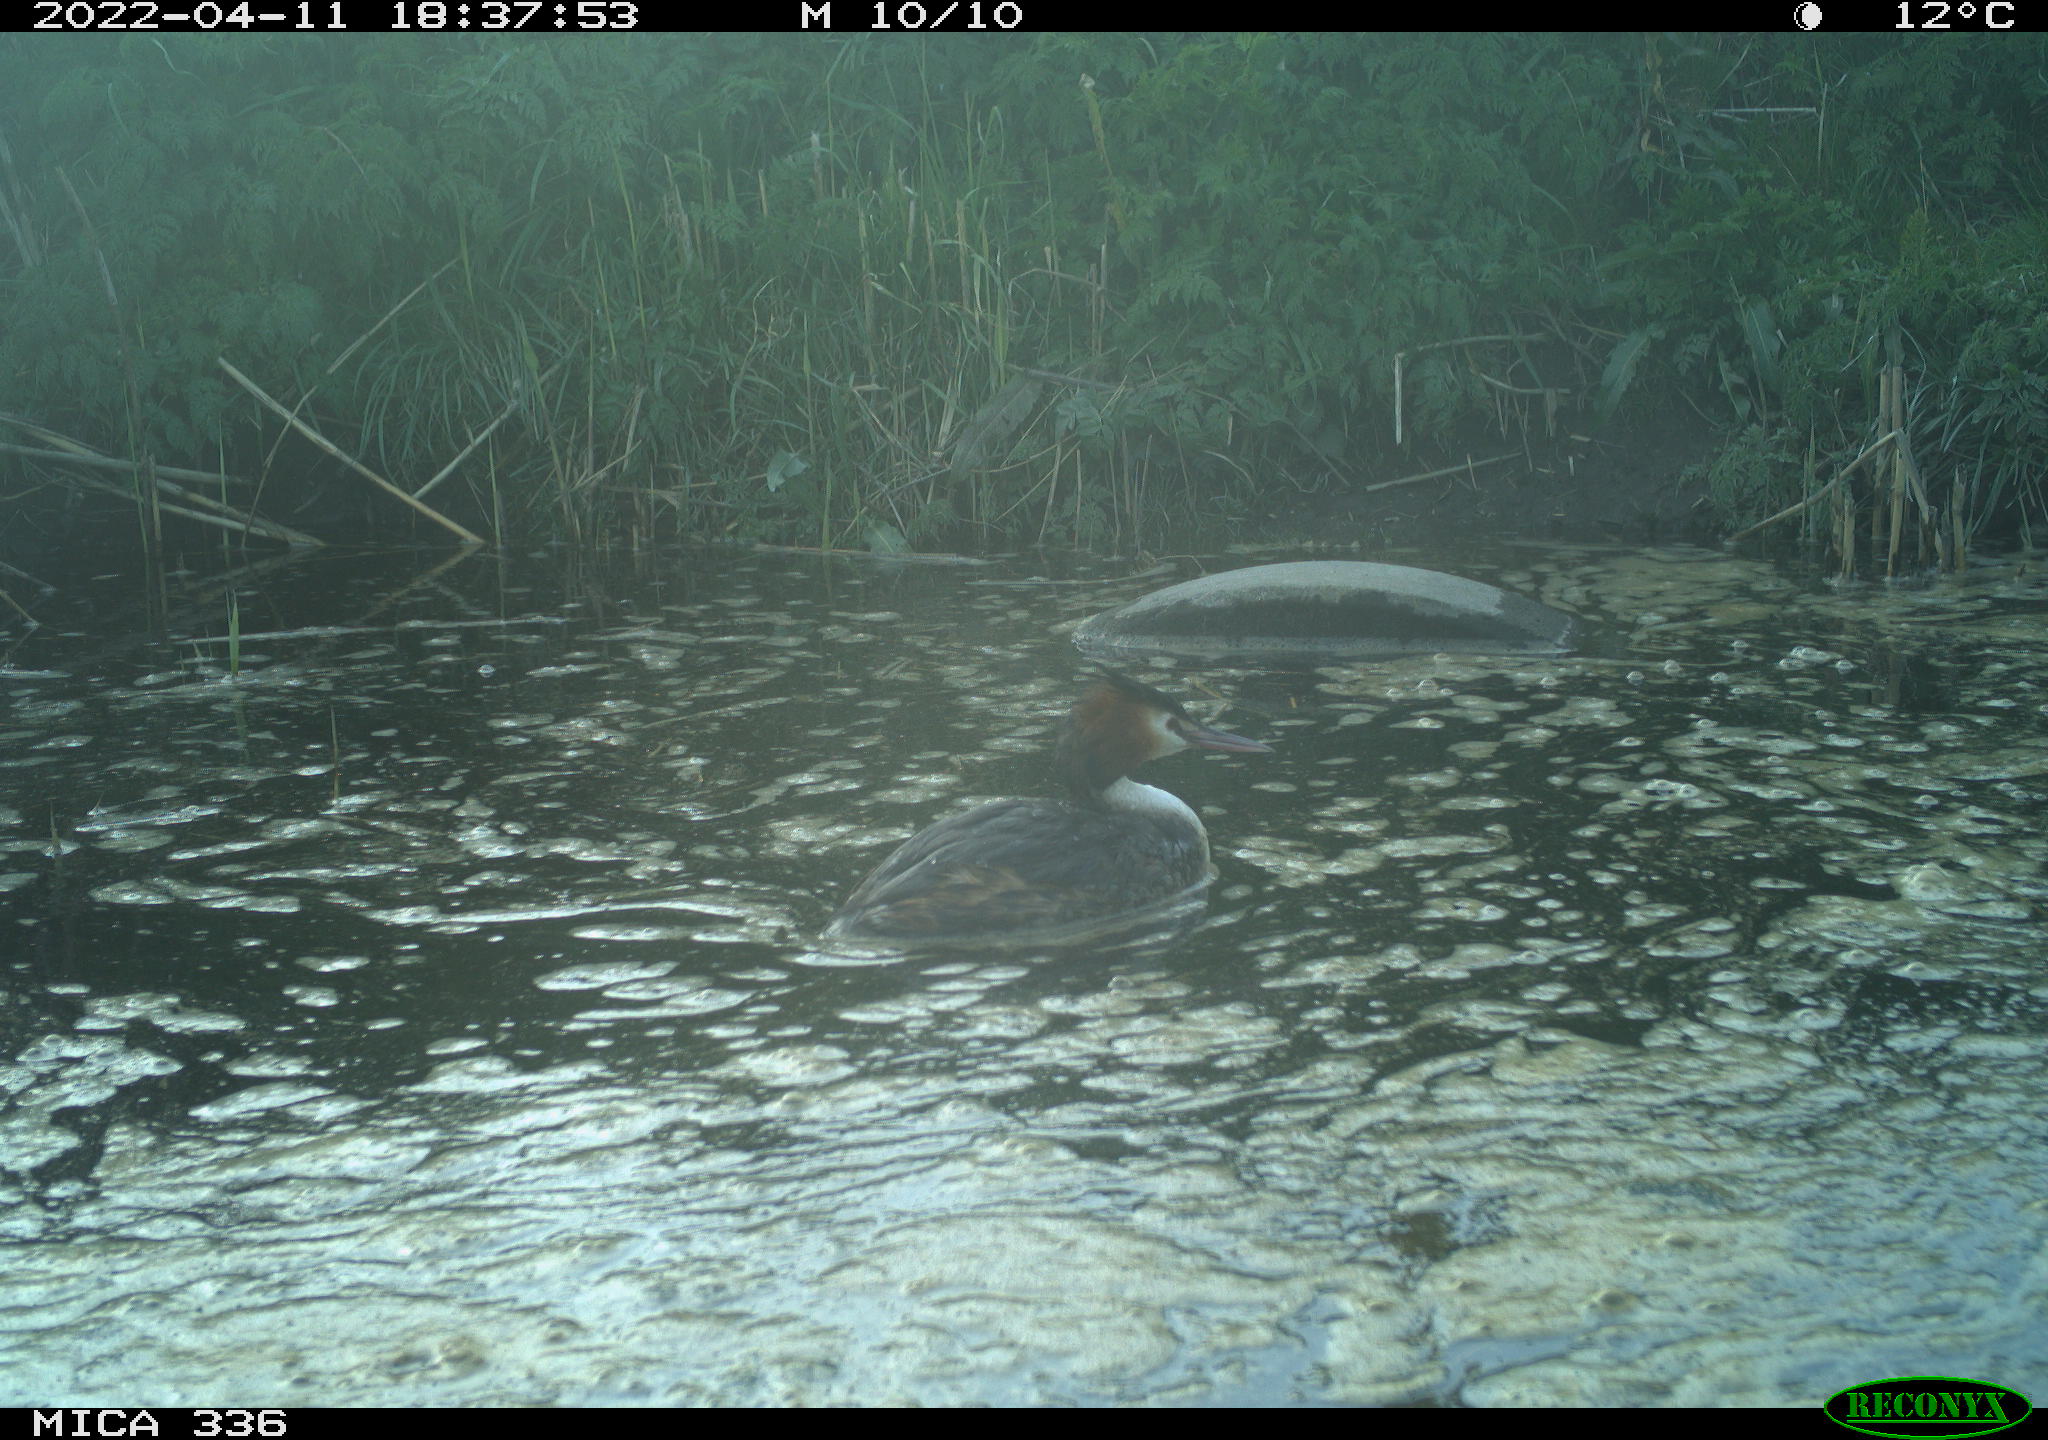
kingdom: Animalia
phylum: Chordata
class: Aves
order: Podicipediformes
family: Podicipedidae
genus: Podiceps
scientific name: Podiceps cristatus
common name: Great crested grebe
